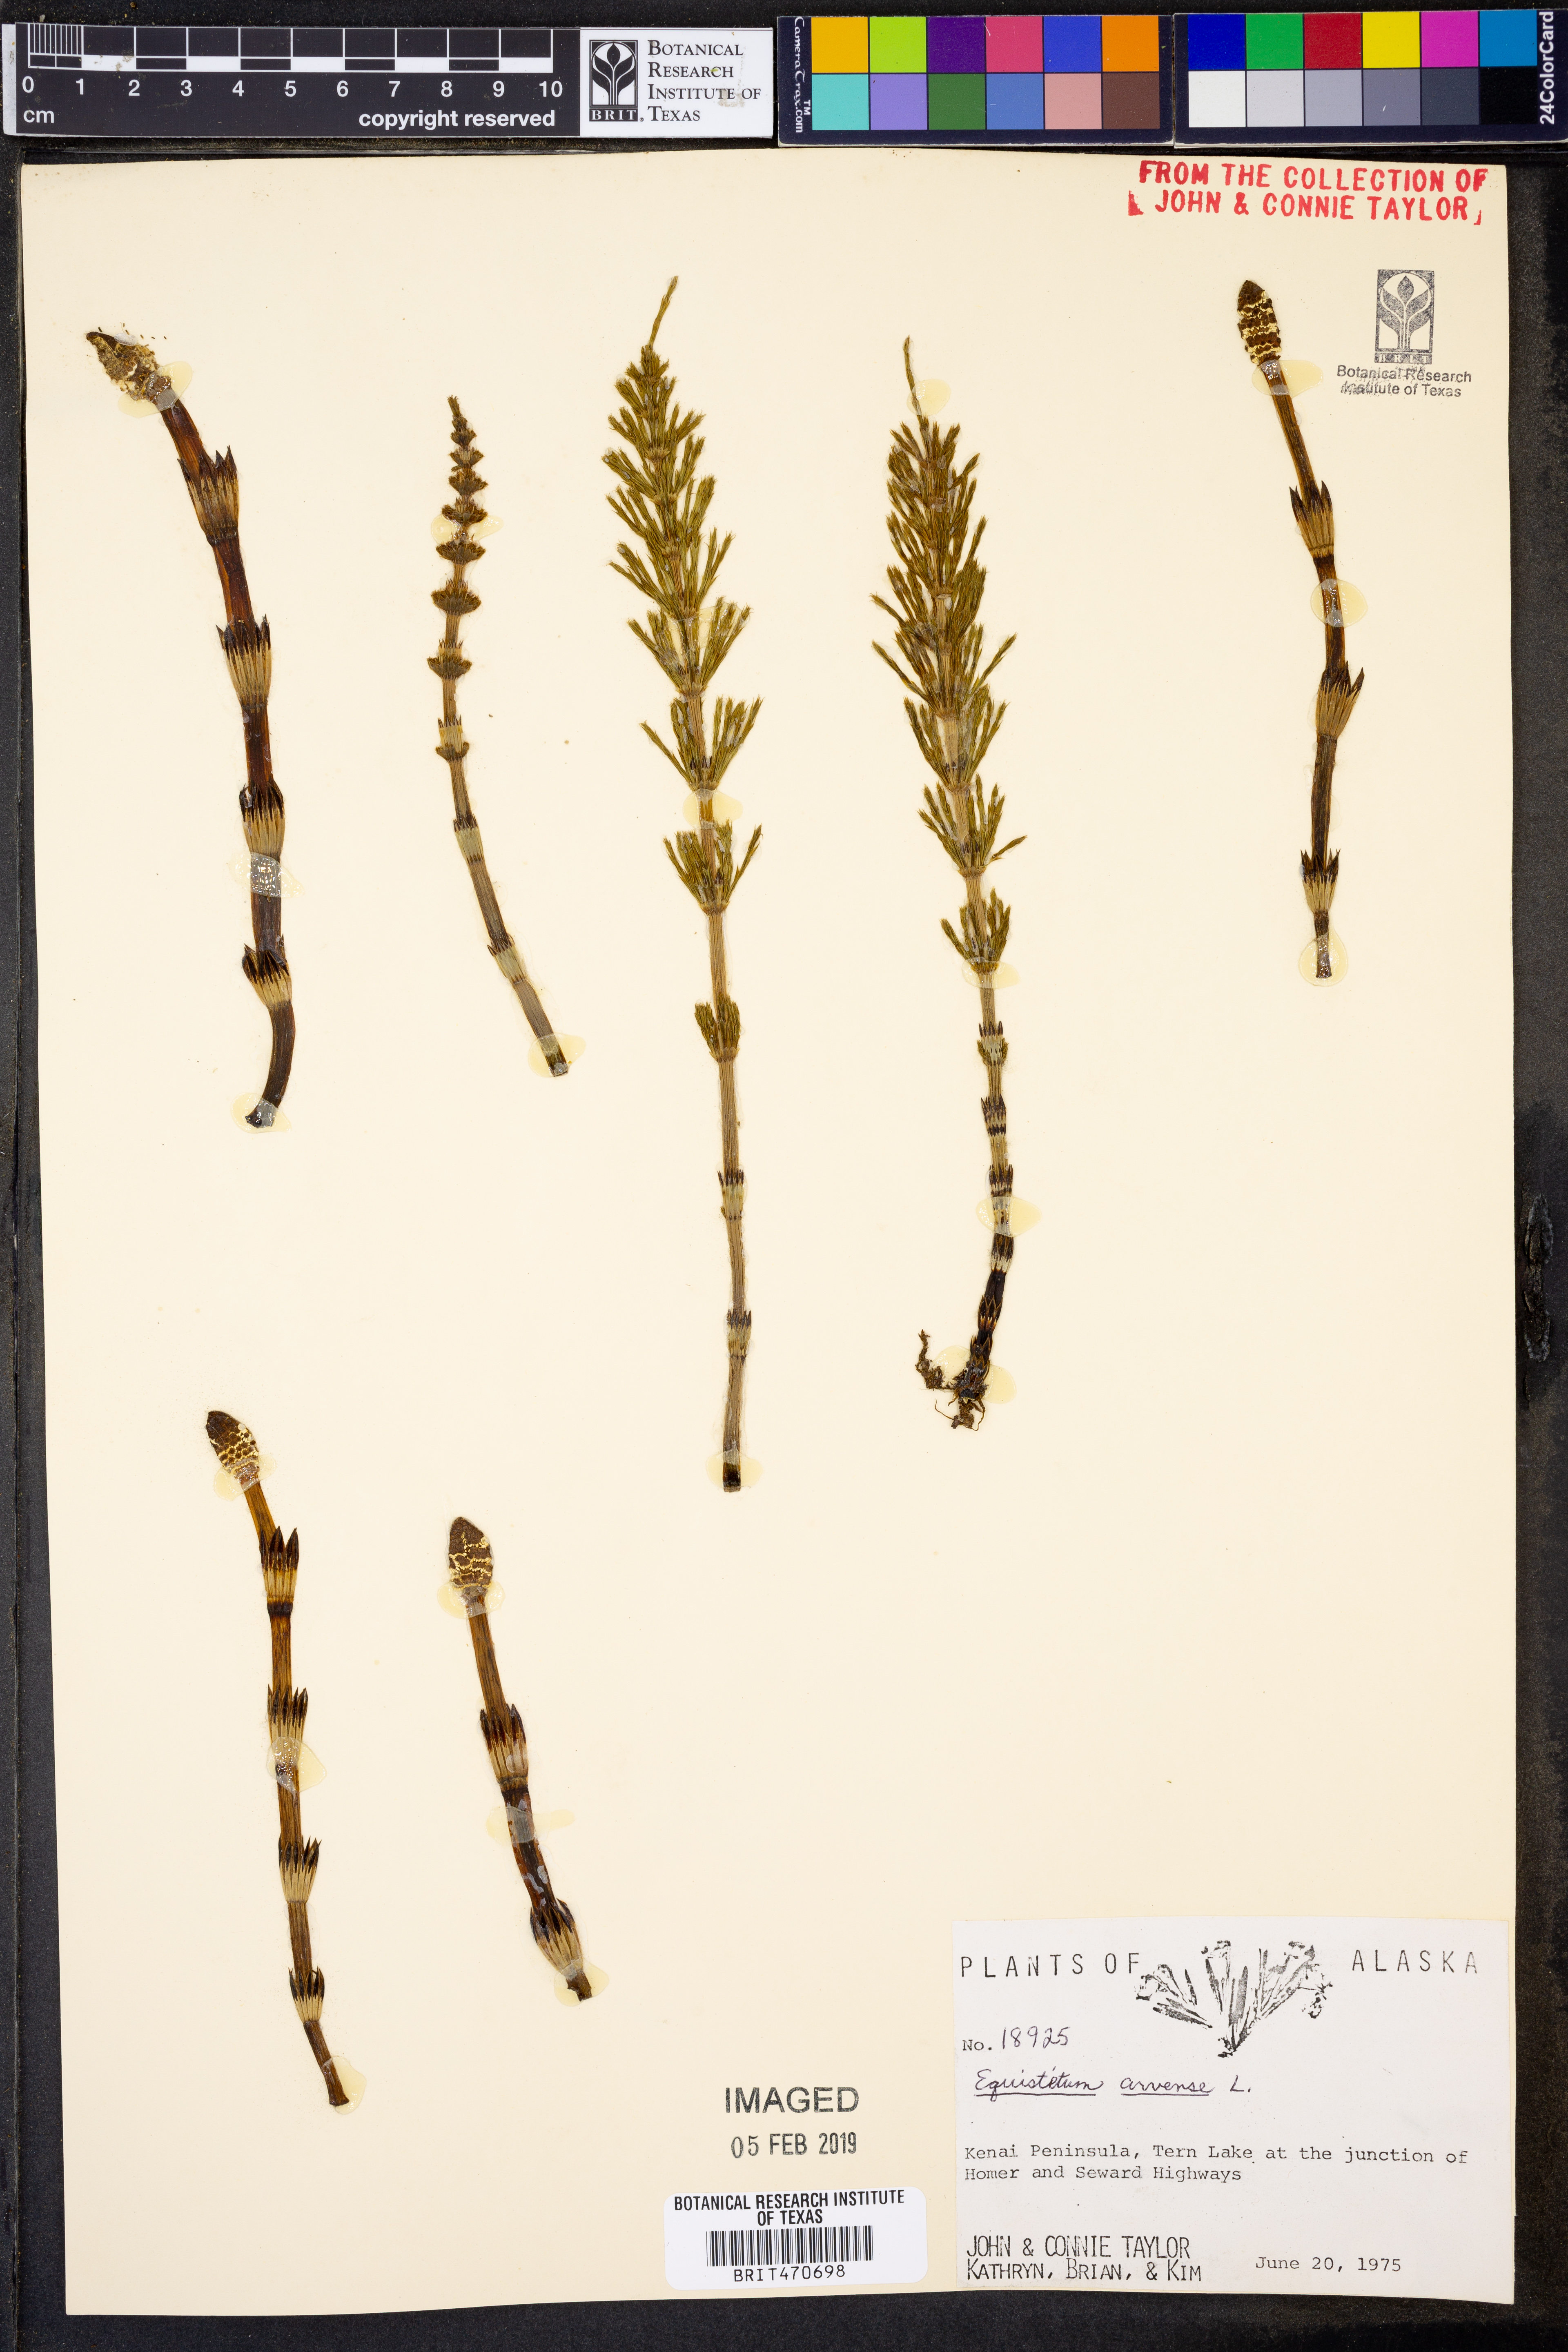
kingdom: Plantae
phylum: Tracheophyta
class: Polypodiopsida
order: Equisetales
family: Equisetaceae
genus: Equisetum
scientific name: Equisetum arvense
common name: Field horsetail
